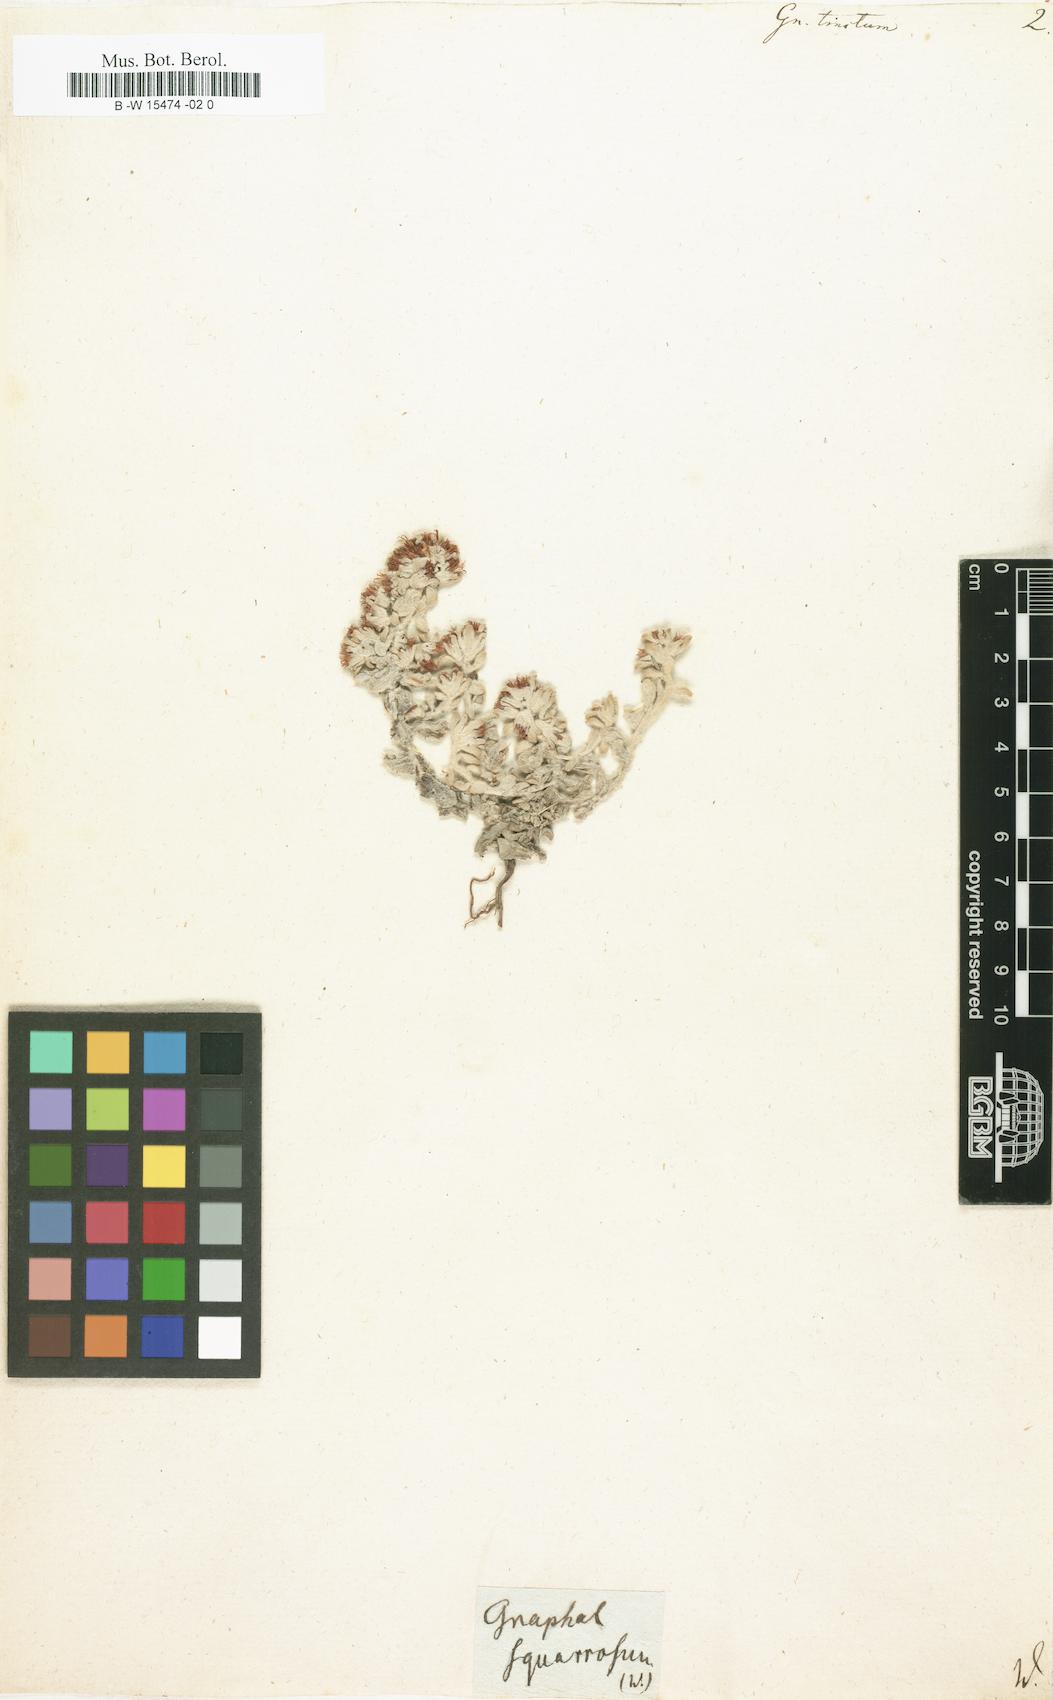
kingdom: Plantae
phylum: Tracheophyta
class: Magnoliopsida
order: Asterales
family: Asteraceae
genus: Helichrysum
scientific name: Helichrysum tinctum
